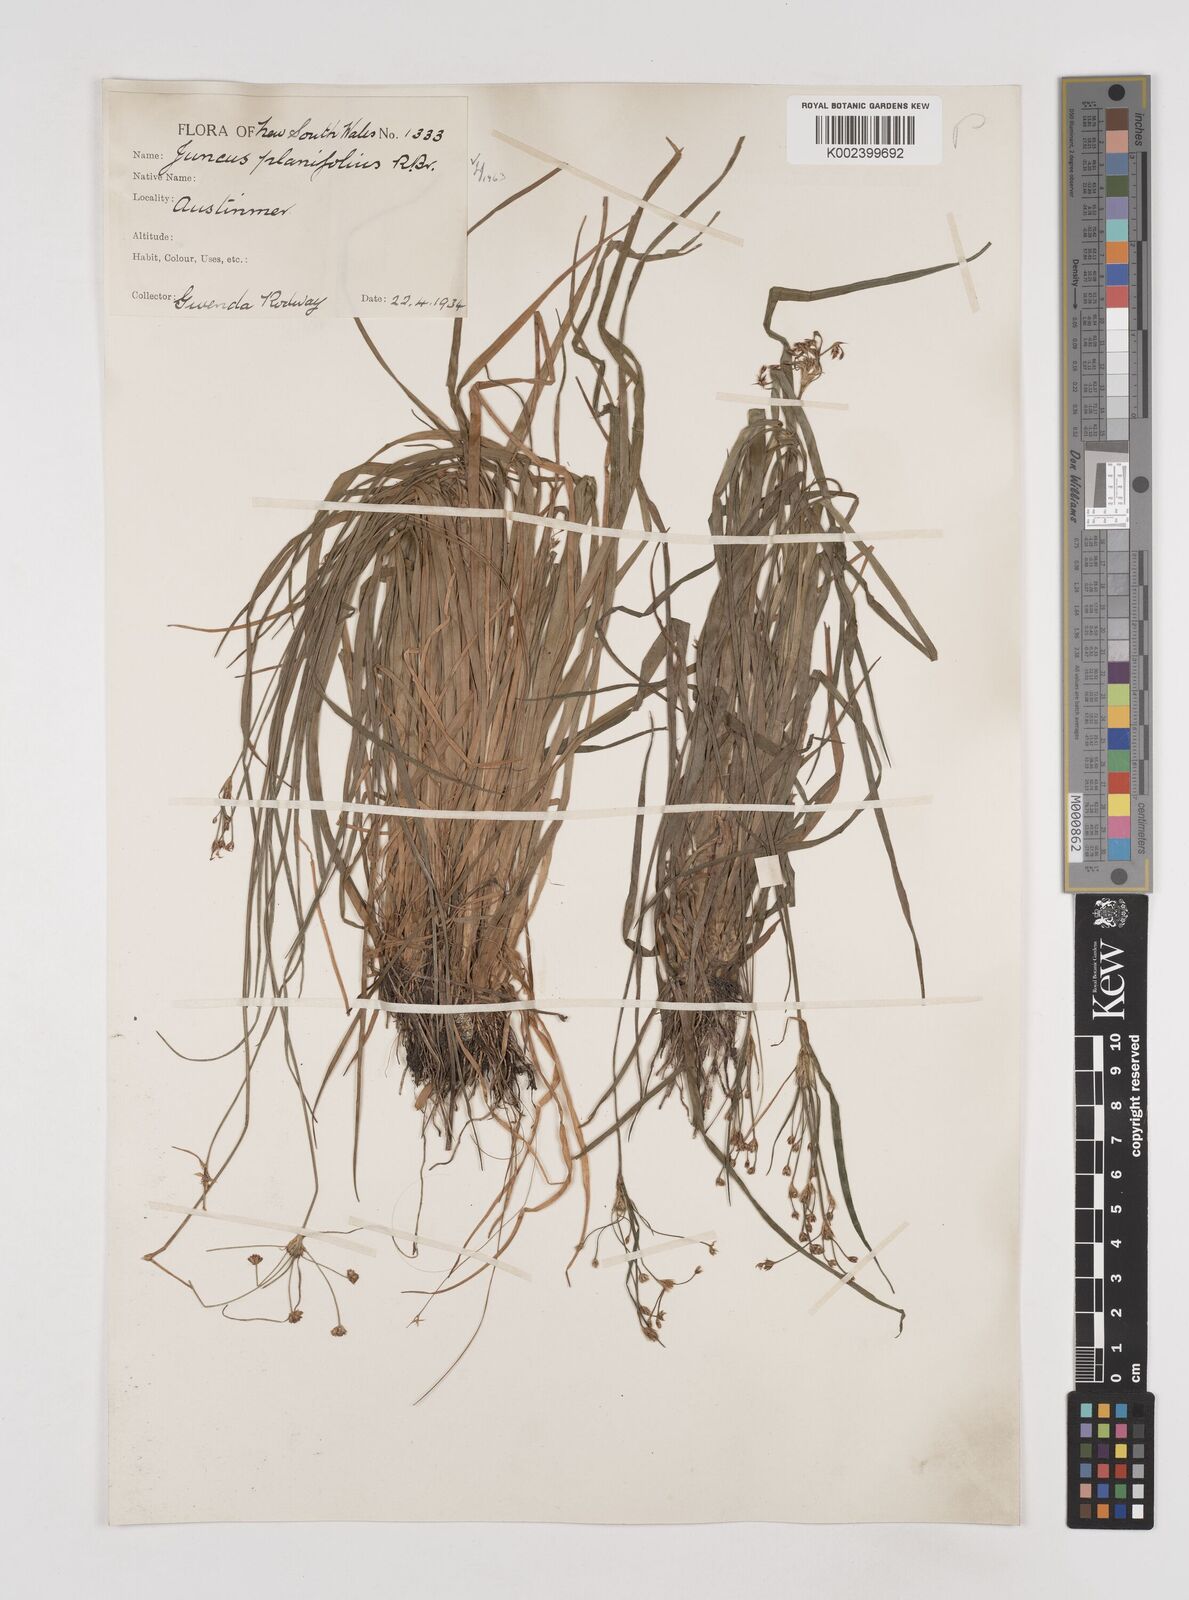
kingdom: Plantae
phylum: Tracheophyta
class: Liliopsida
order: Poales
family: Juncaceae
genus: Juncus
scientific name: Juncus planifolius
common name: Broadleaf rush
